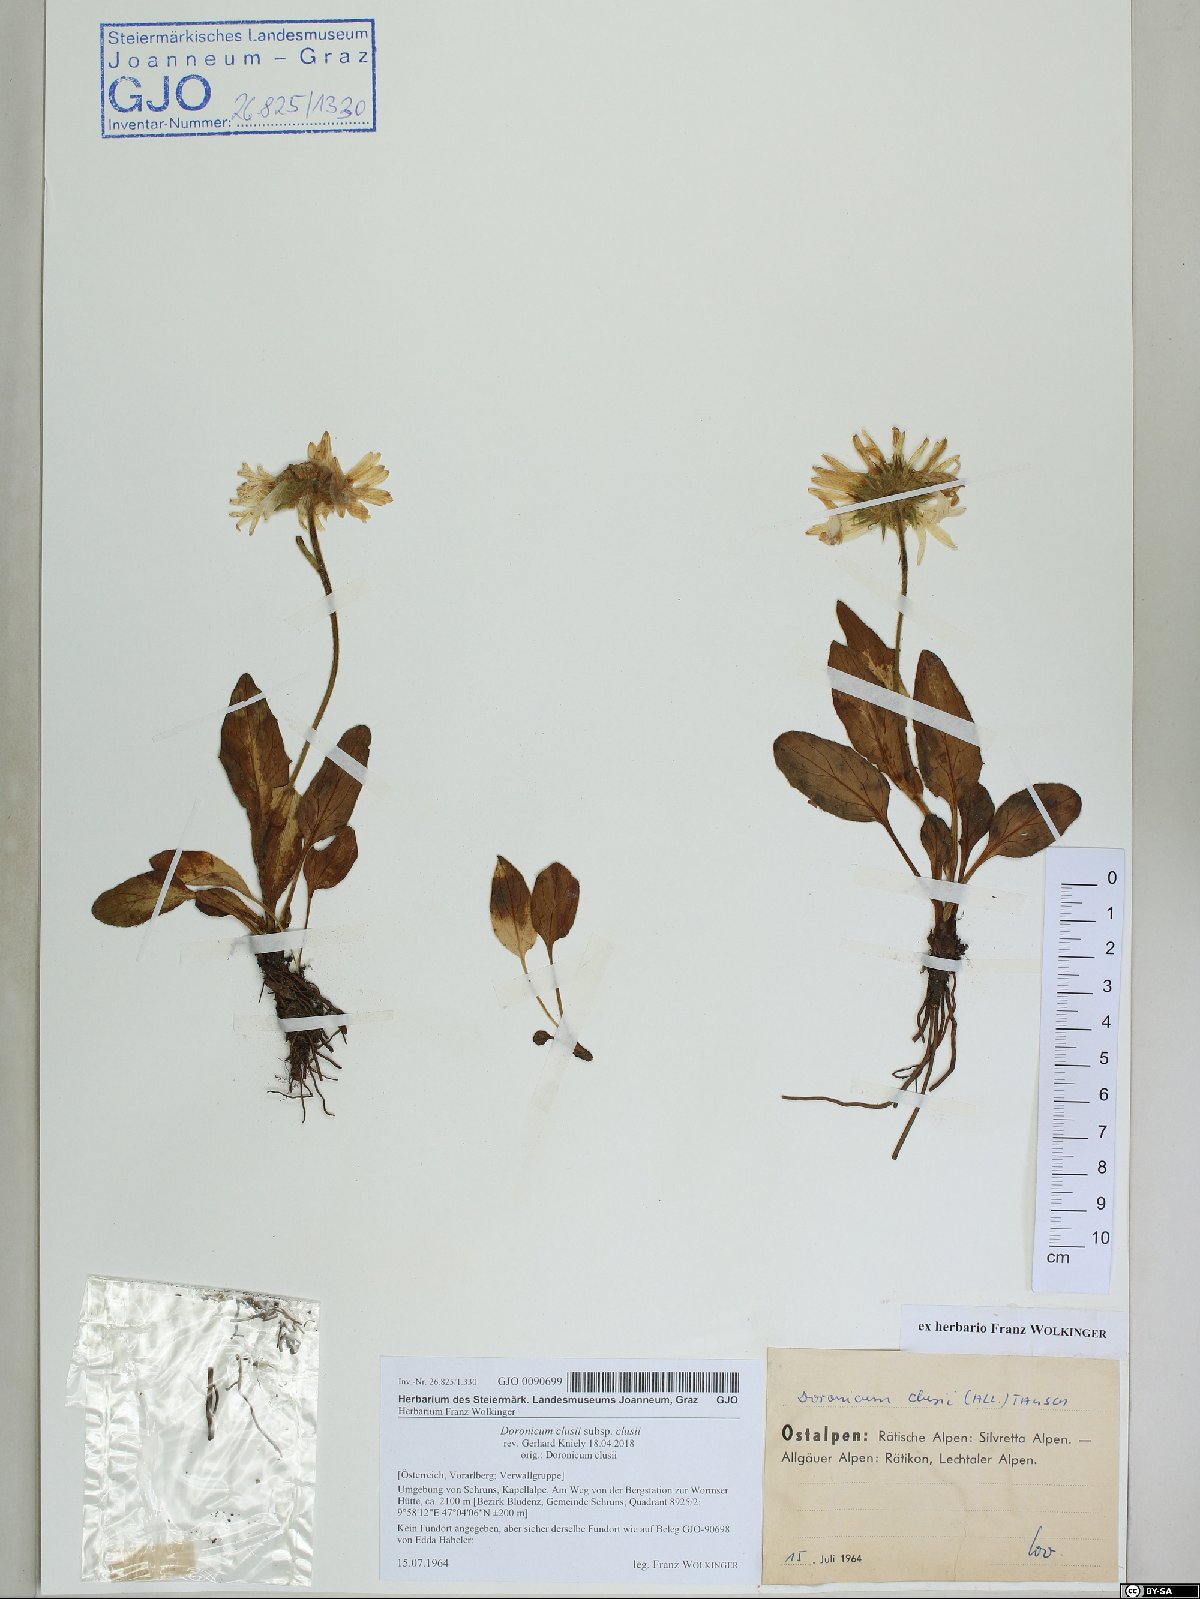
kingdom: Plantae
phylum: Tracheophyta
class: Magnoliopsida
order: Asterales
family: Asteraceae
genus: Doronicum
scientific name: Doronicum clusii
